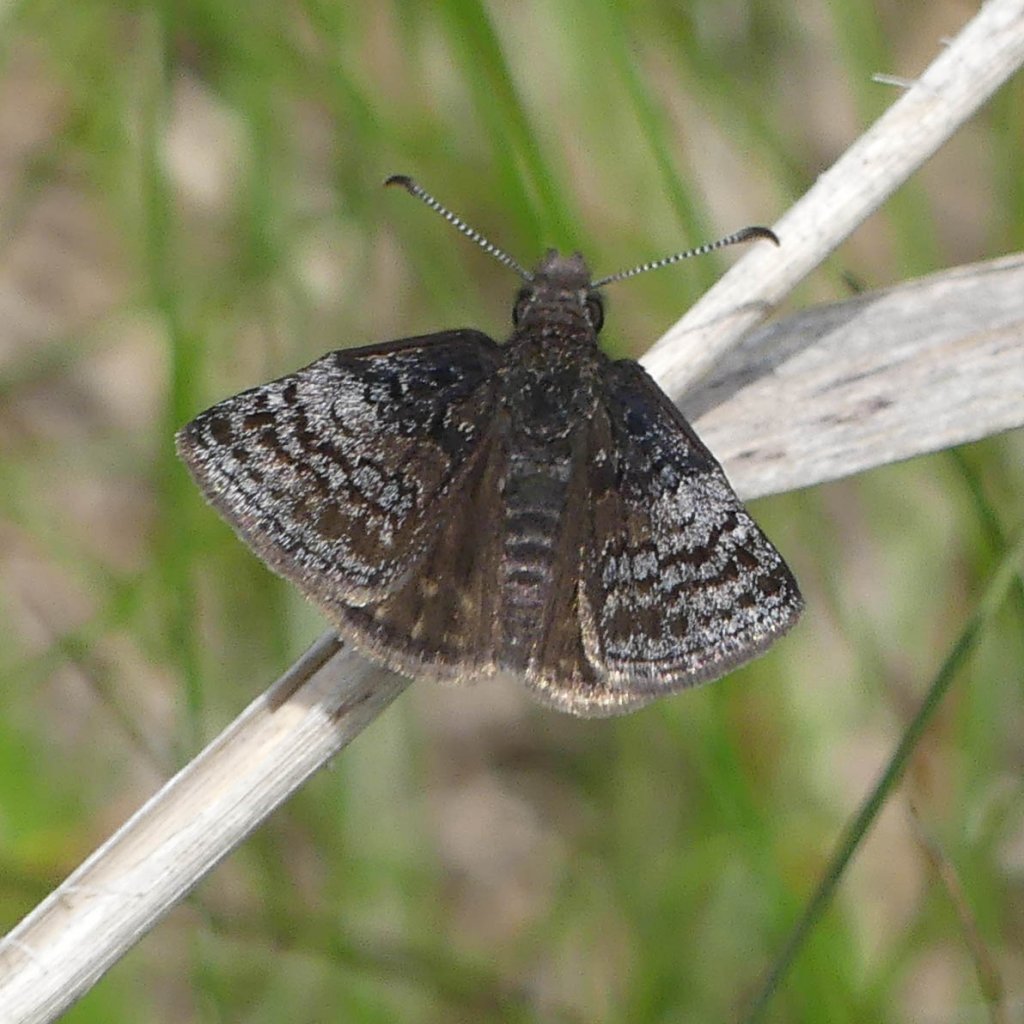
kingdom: Animalia
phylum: Arthropoda
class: Insecta
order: Lepidoptera
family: Hesperiidae
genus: Erynnis
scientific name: Erynnis icelus
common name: Dreamy Duskywing
